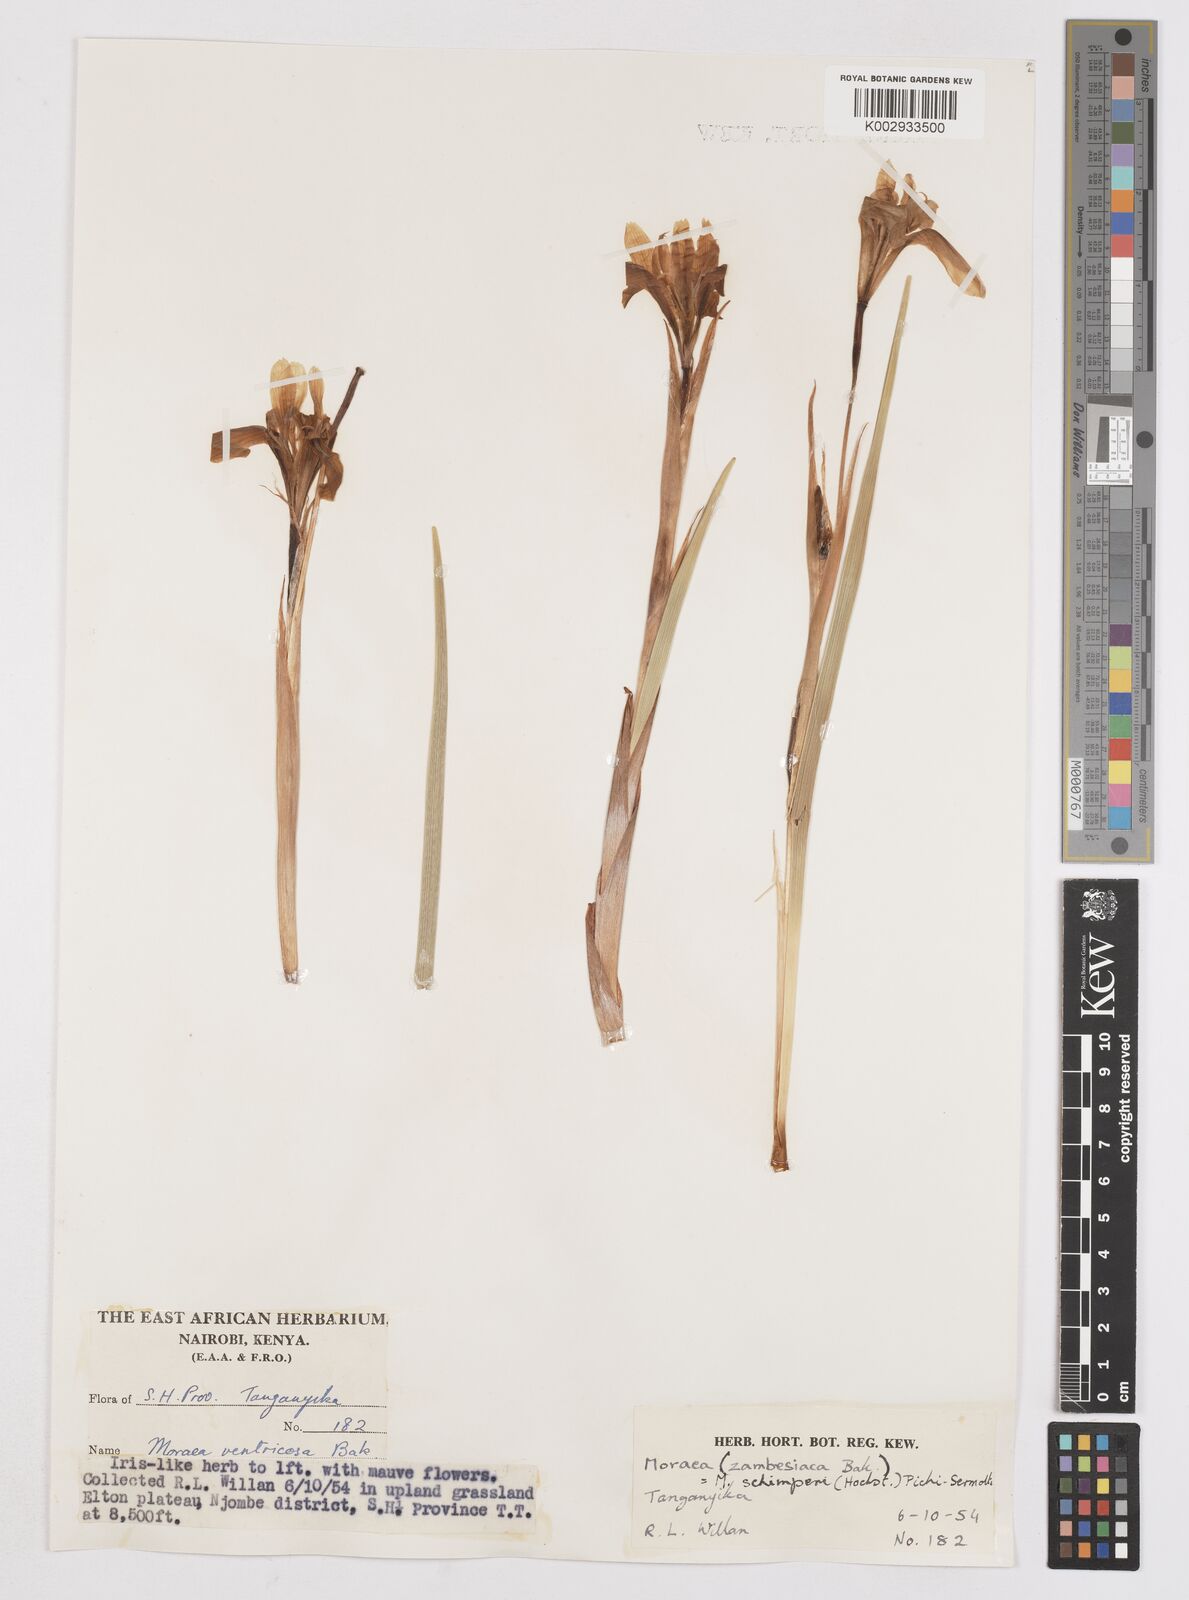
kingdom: Plantae
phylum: Tracheophyta
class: Liliopsida
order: Asparagales
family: Iridaceae
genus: Moraea
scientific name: Moraea schimperi
